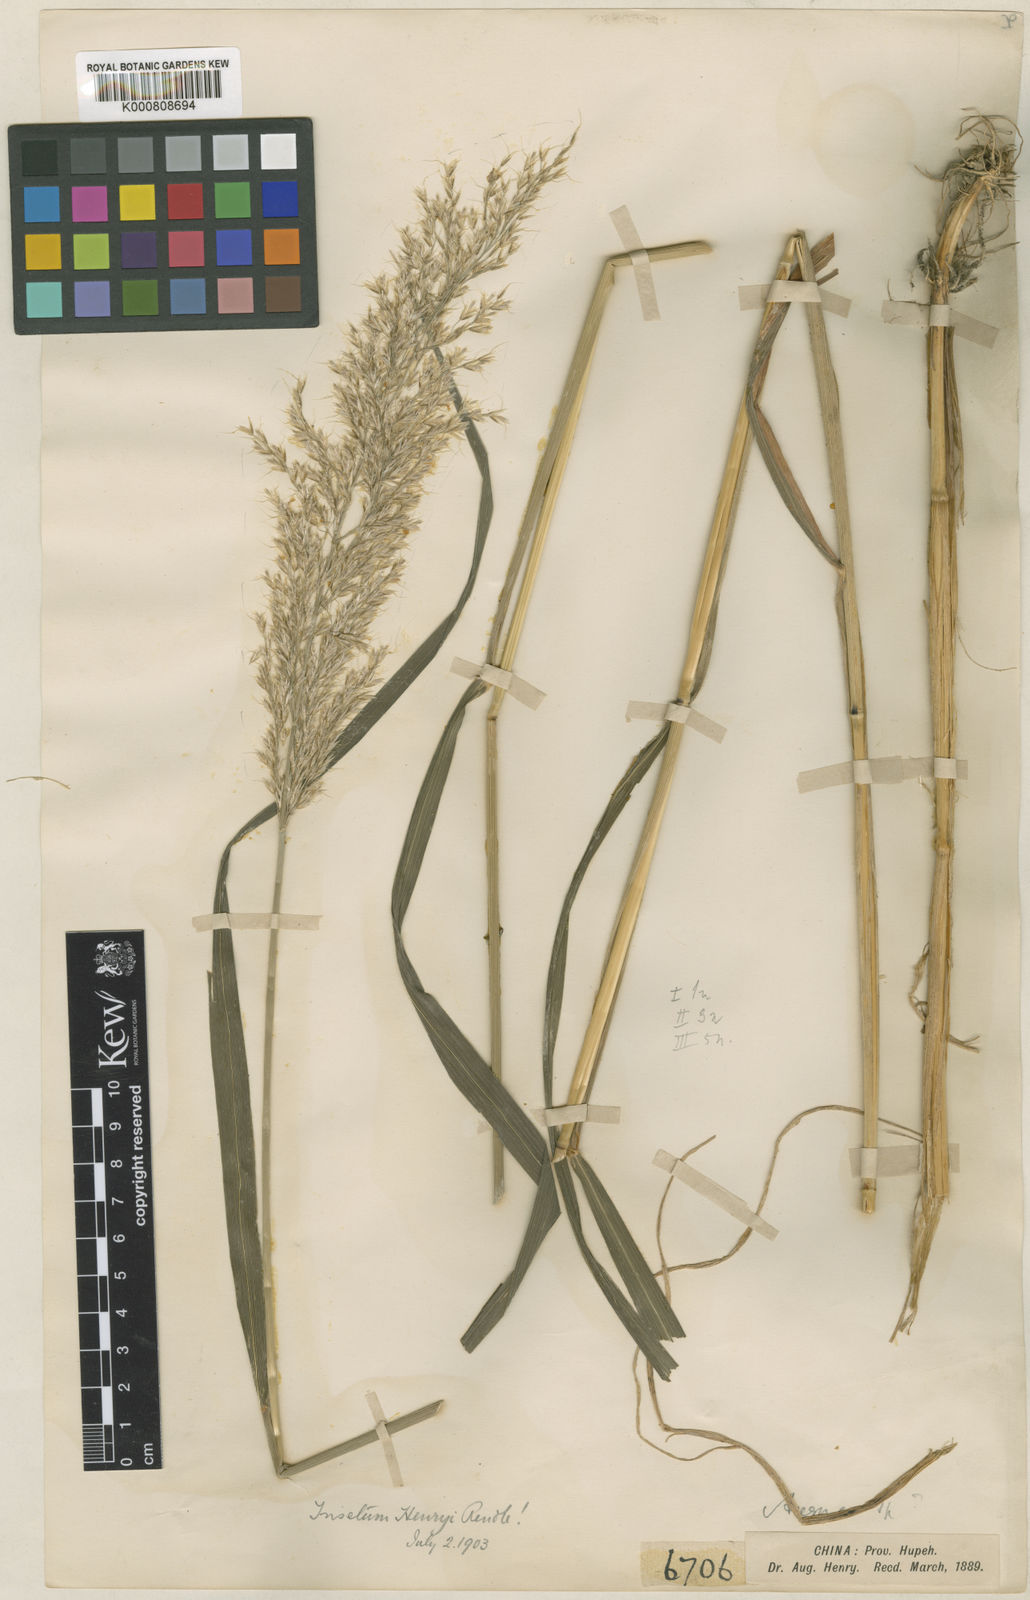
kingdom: Plantae
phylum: Tracheophyta
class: Liliopsida
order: Poales
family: Poaceae
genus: Sibirotrisetum
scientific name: Sibirotrisetum henryi
